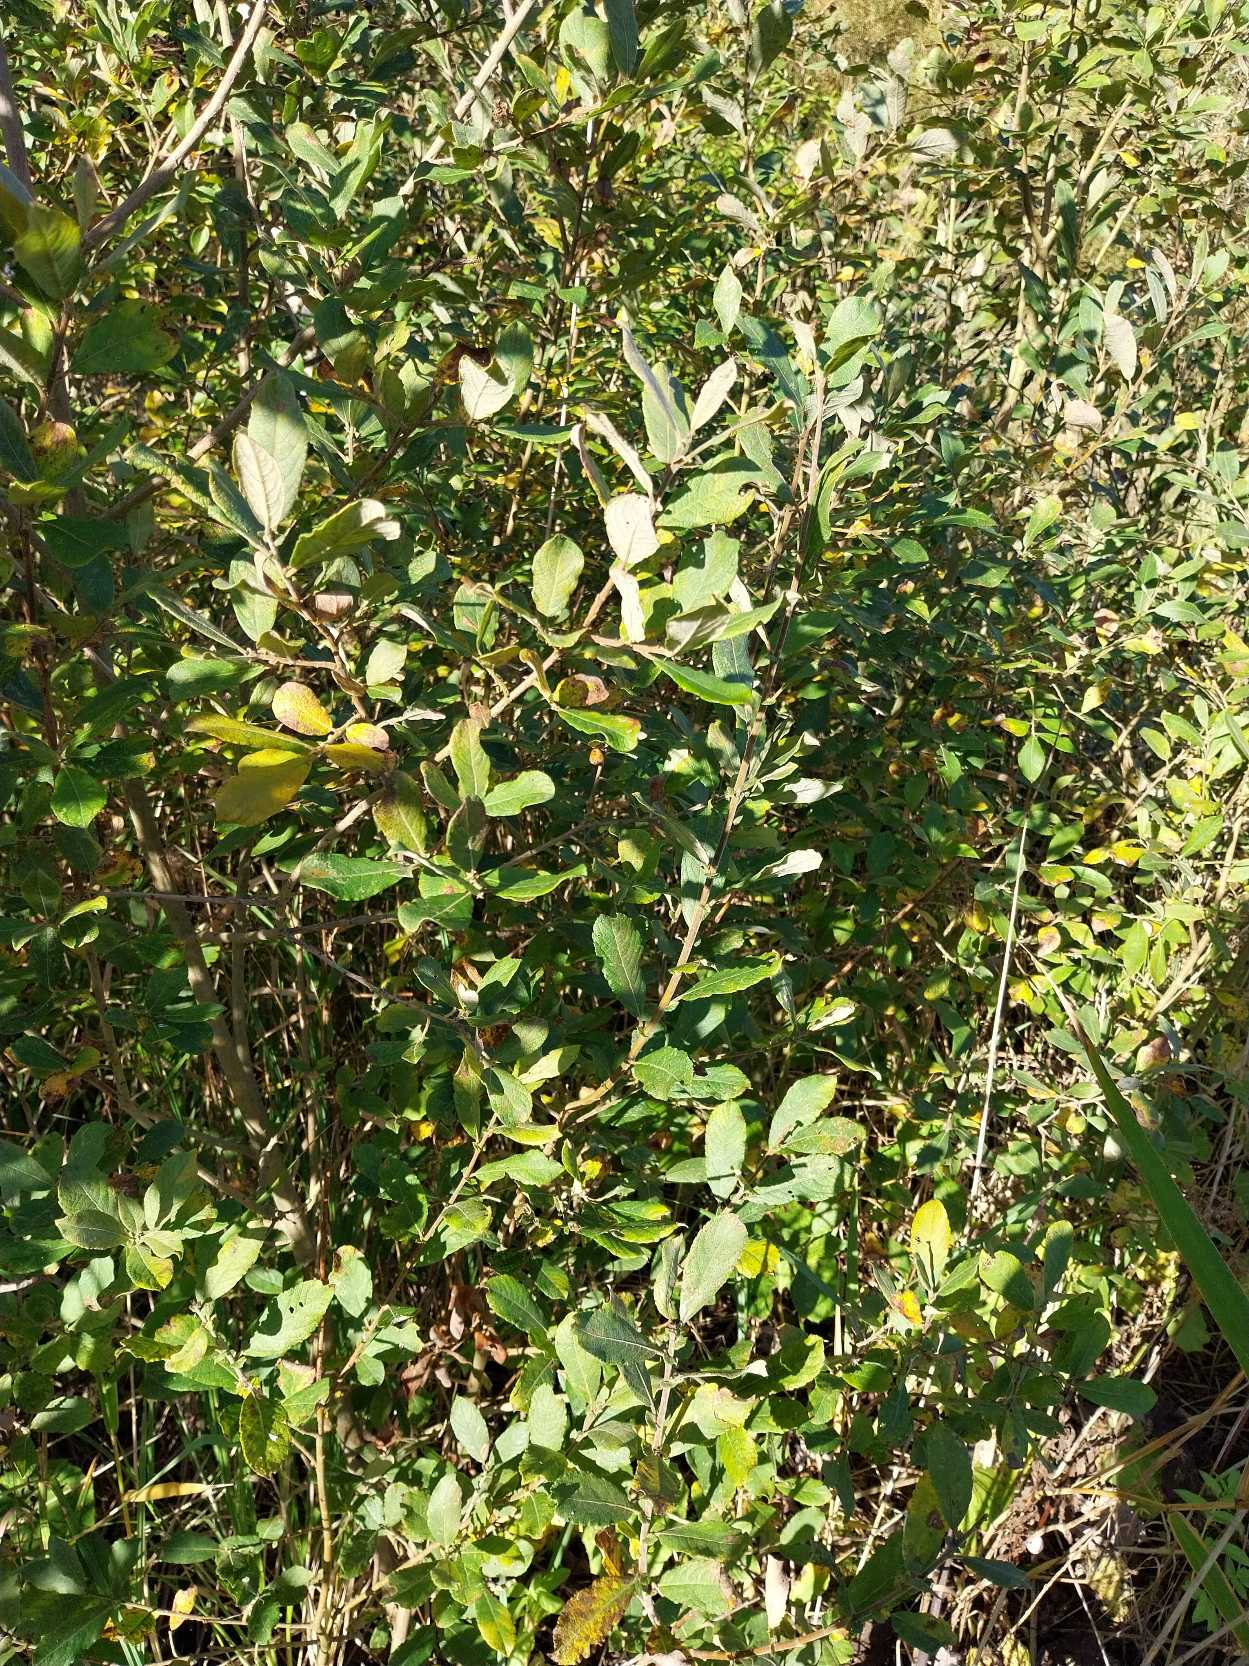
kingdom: Plantae
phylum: Tracheophyta
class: Magnoliopsida
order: Malpighiales
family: Salicaceae
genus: Salix
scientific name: Salix cinerea
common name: Grå-pil
